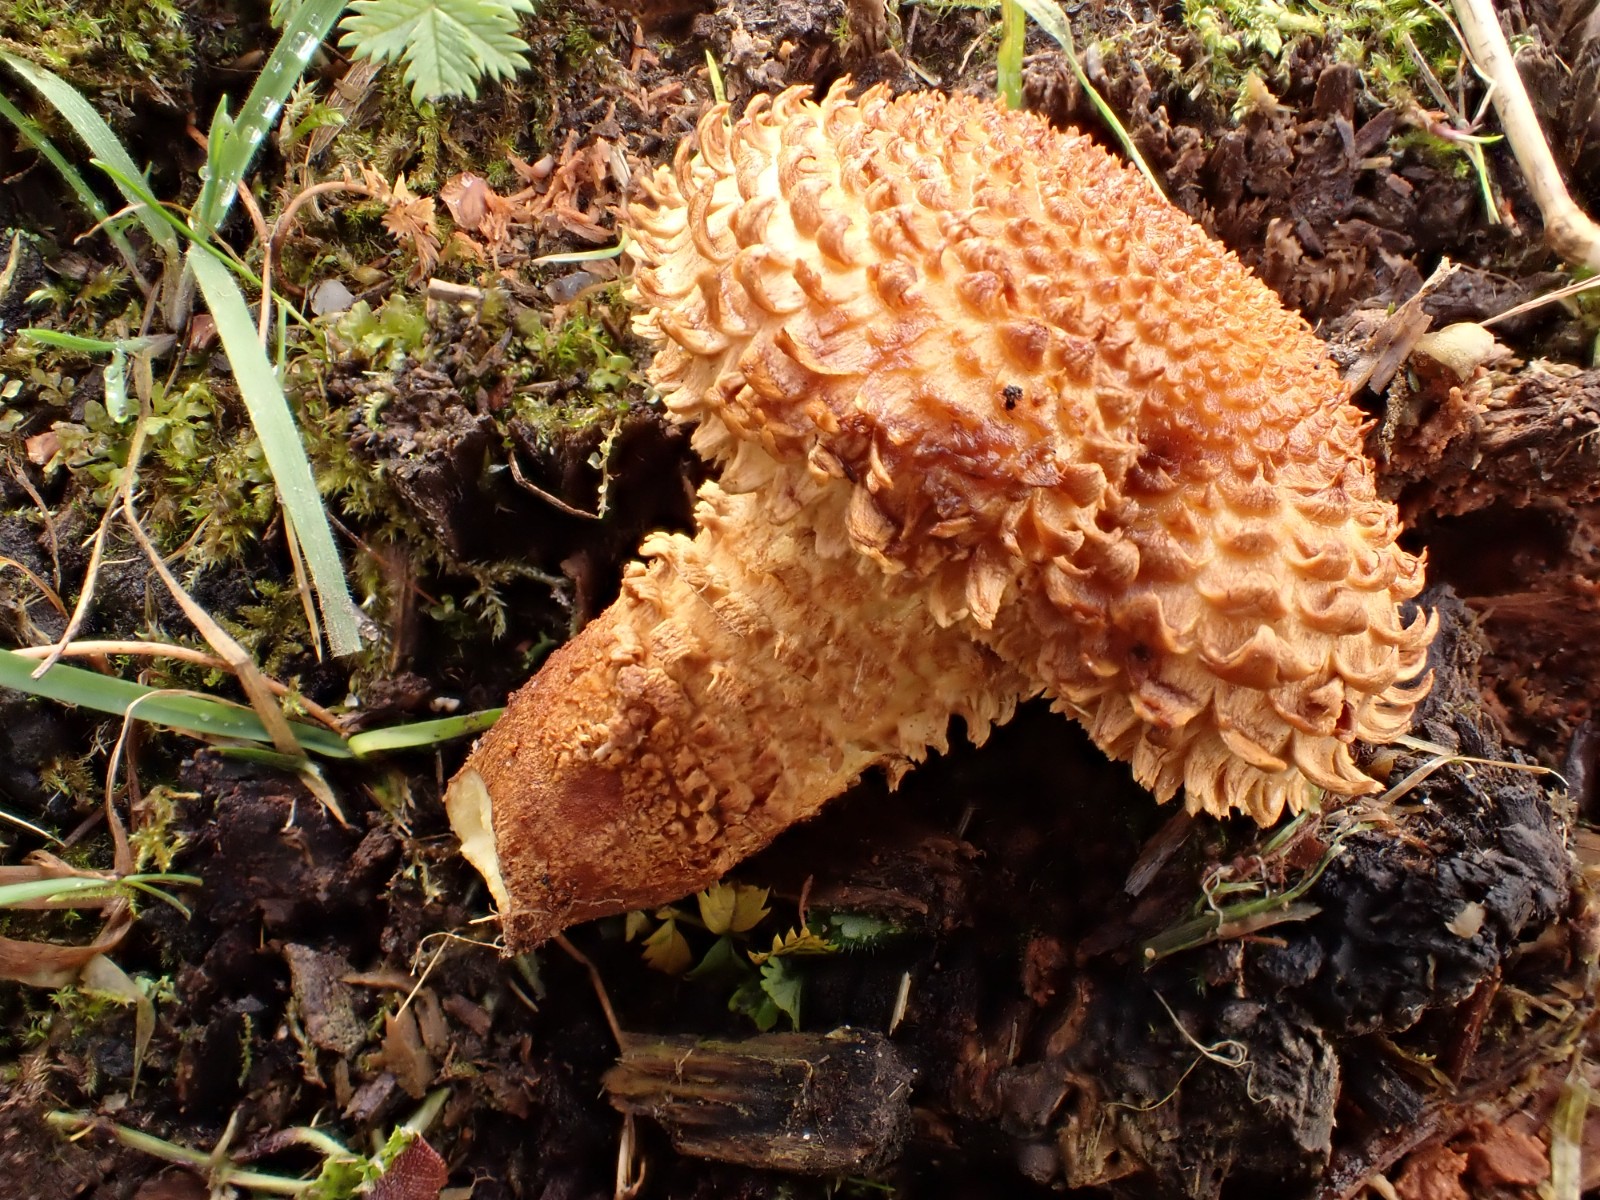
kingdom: Fungi
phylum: Basidiomycota
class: Agaricomycetes
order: Agaricales
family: Strophariaceae
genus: Pholiota
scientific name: Pholiota squarrosa
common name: krumskællet skælhat
